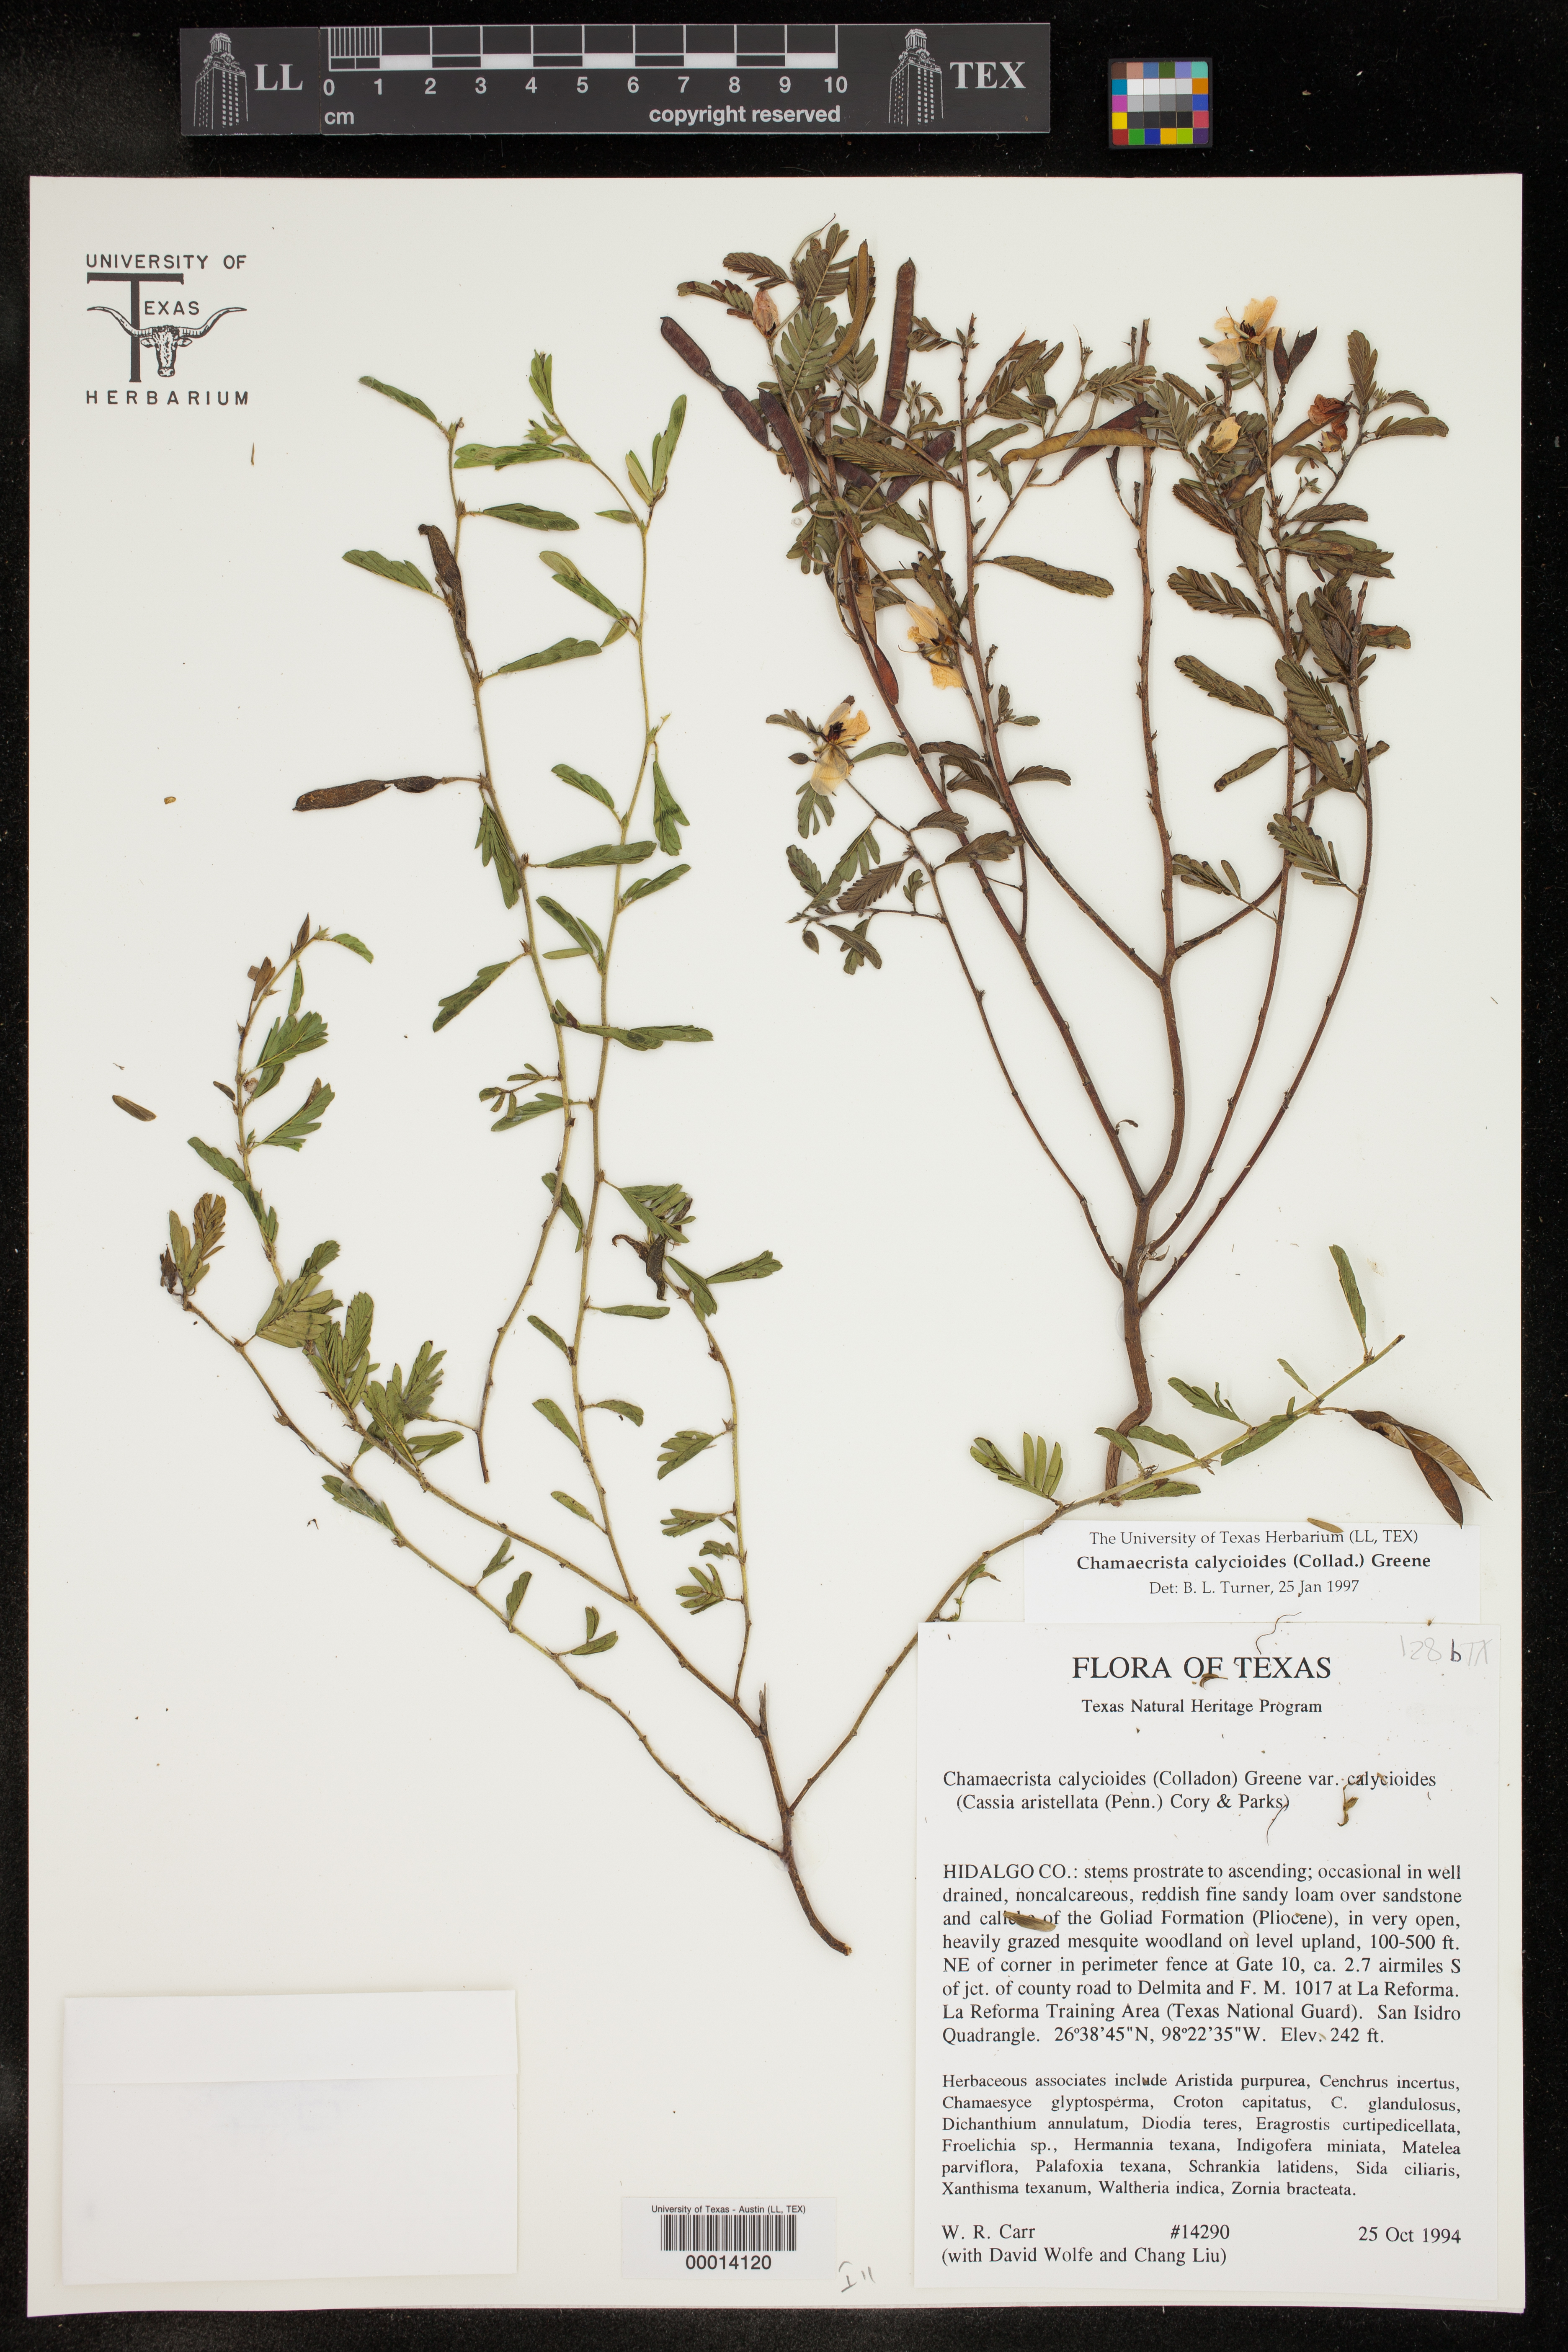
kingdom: Plantae
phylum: Tracheophyta
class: Magnoliopsida
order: Fabales
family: Fabaceae
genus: Chamaecrista
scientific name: Chamaecrista calycioides
